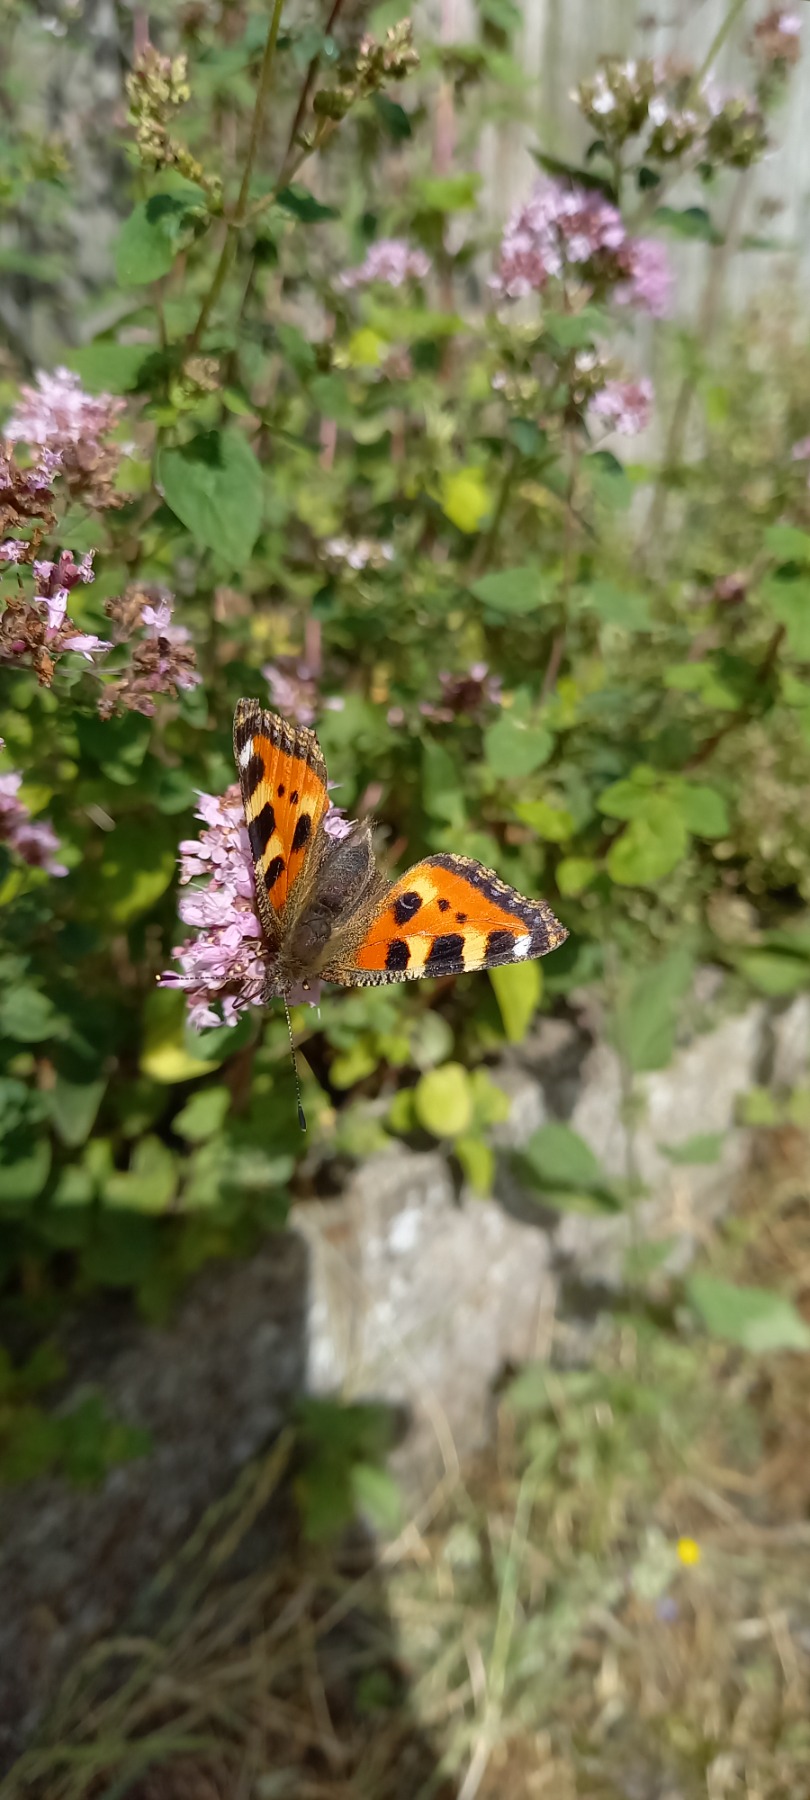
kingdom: Animalia
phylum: Arthropoda
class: Insecta
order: Lepidoptera
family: Nymphalidae
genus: Aglais
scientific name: Aglais urticae
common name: Nældens takvinge
